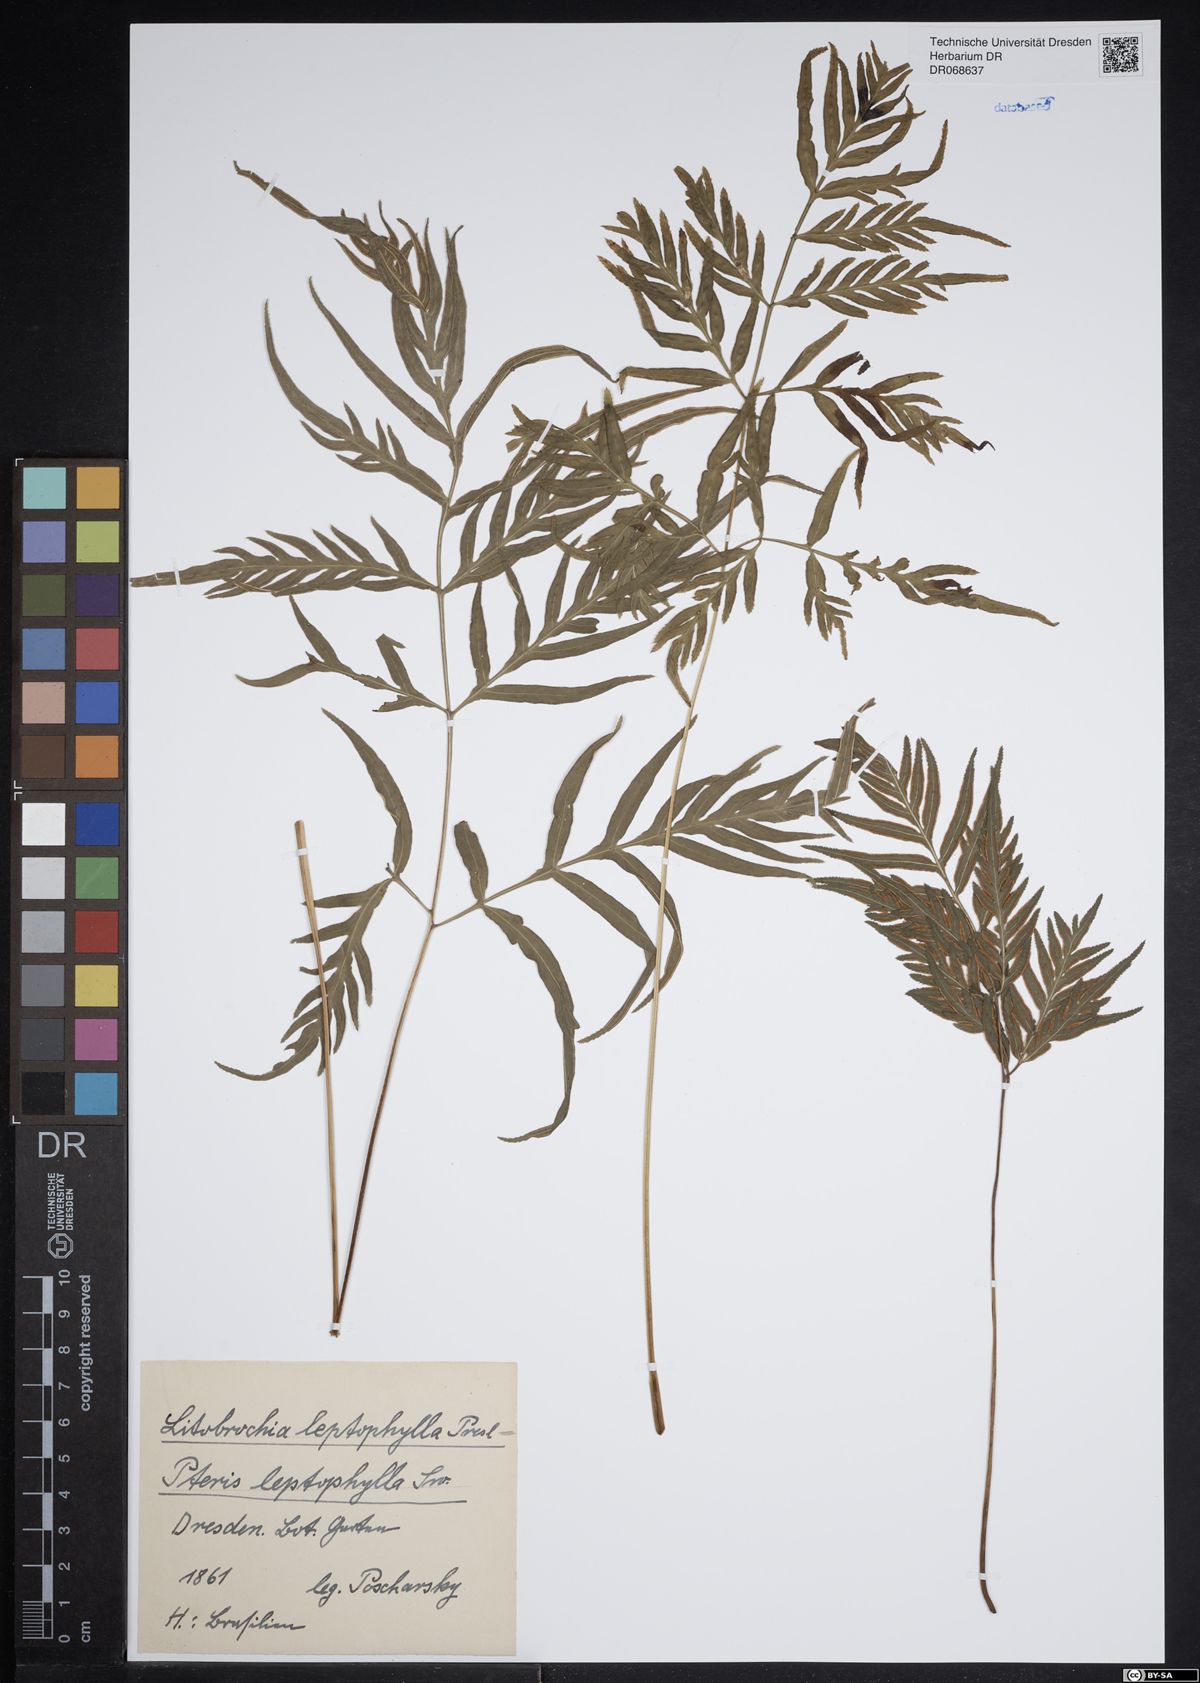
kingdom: Plantae
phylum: Tracheophyta
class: Polypodiopsida
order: Polypodiales
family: Pteridaceae
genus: Pteris
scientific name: Pteris leptophylla
